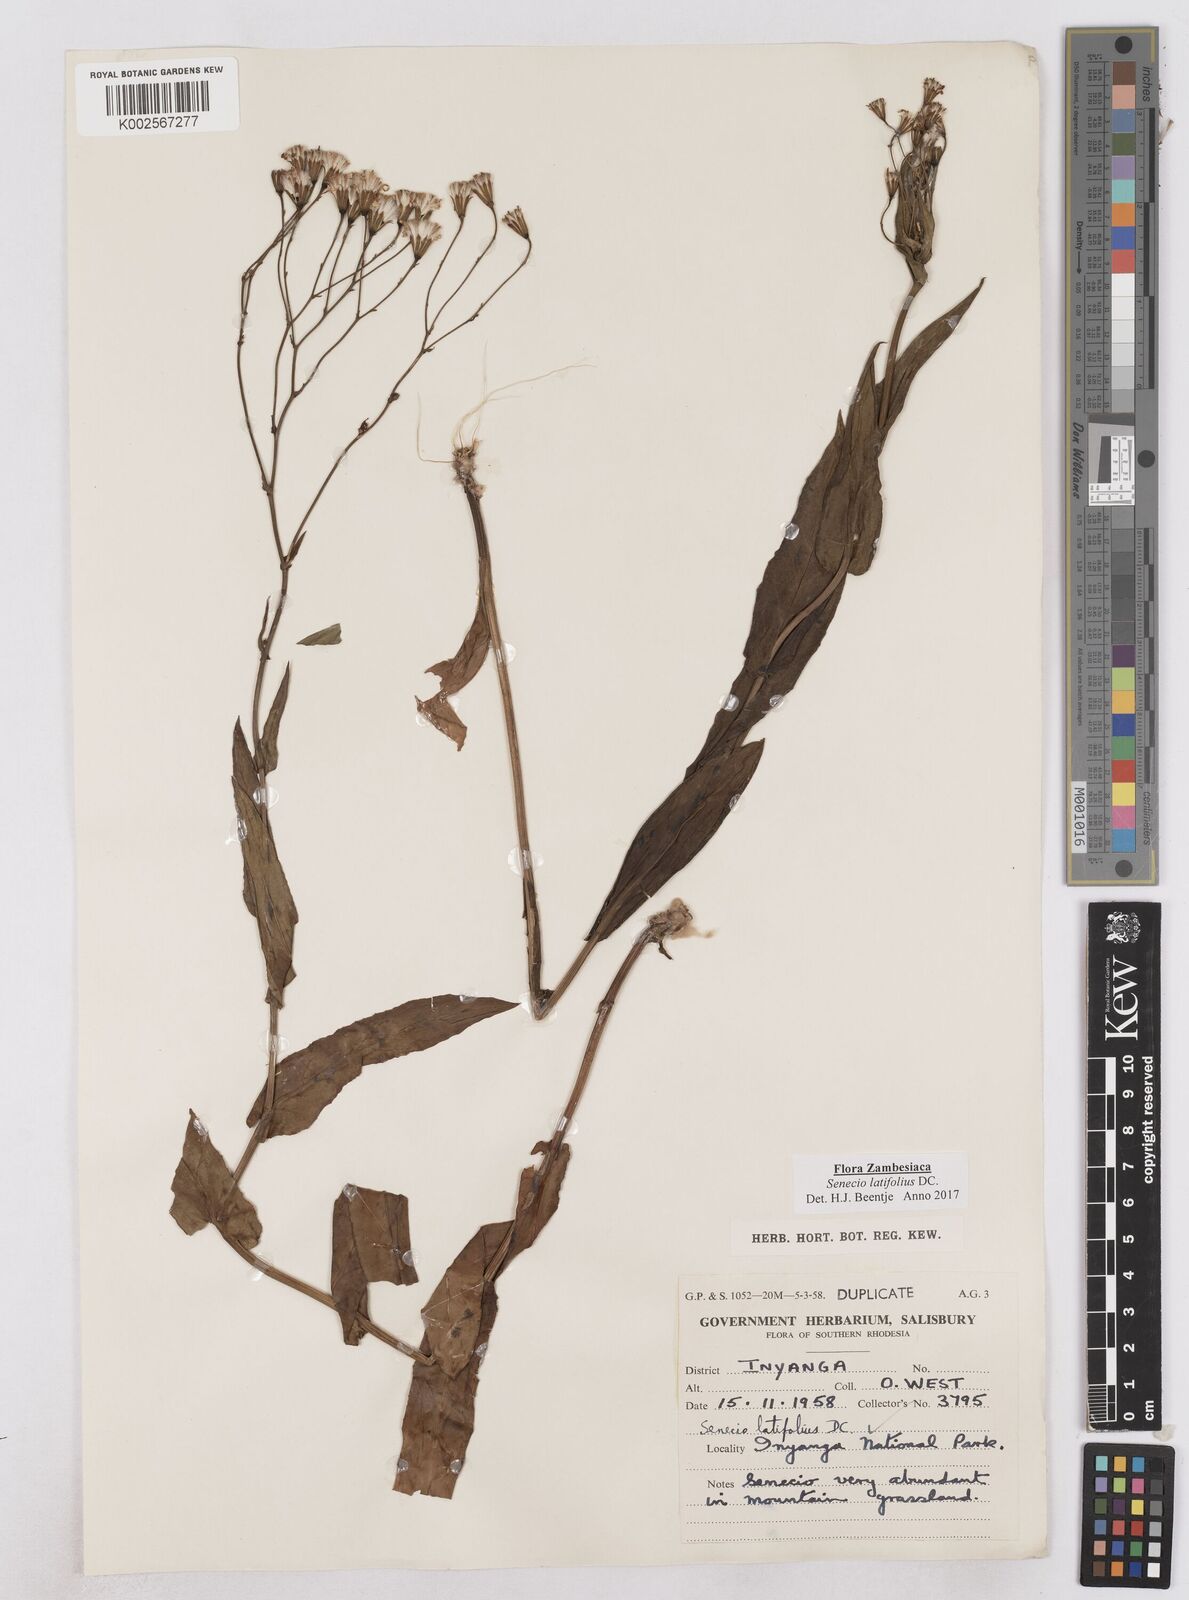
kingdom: Plantae
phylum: Tracheophyta
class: Magnoliopsida
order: Asterales
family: Asteraceae
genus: Senecio
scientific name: Senecio latifolius
